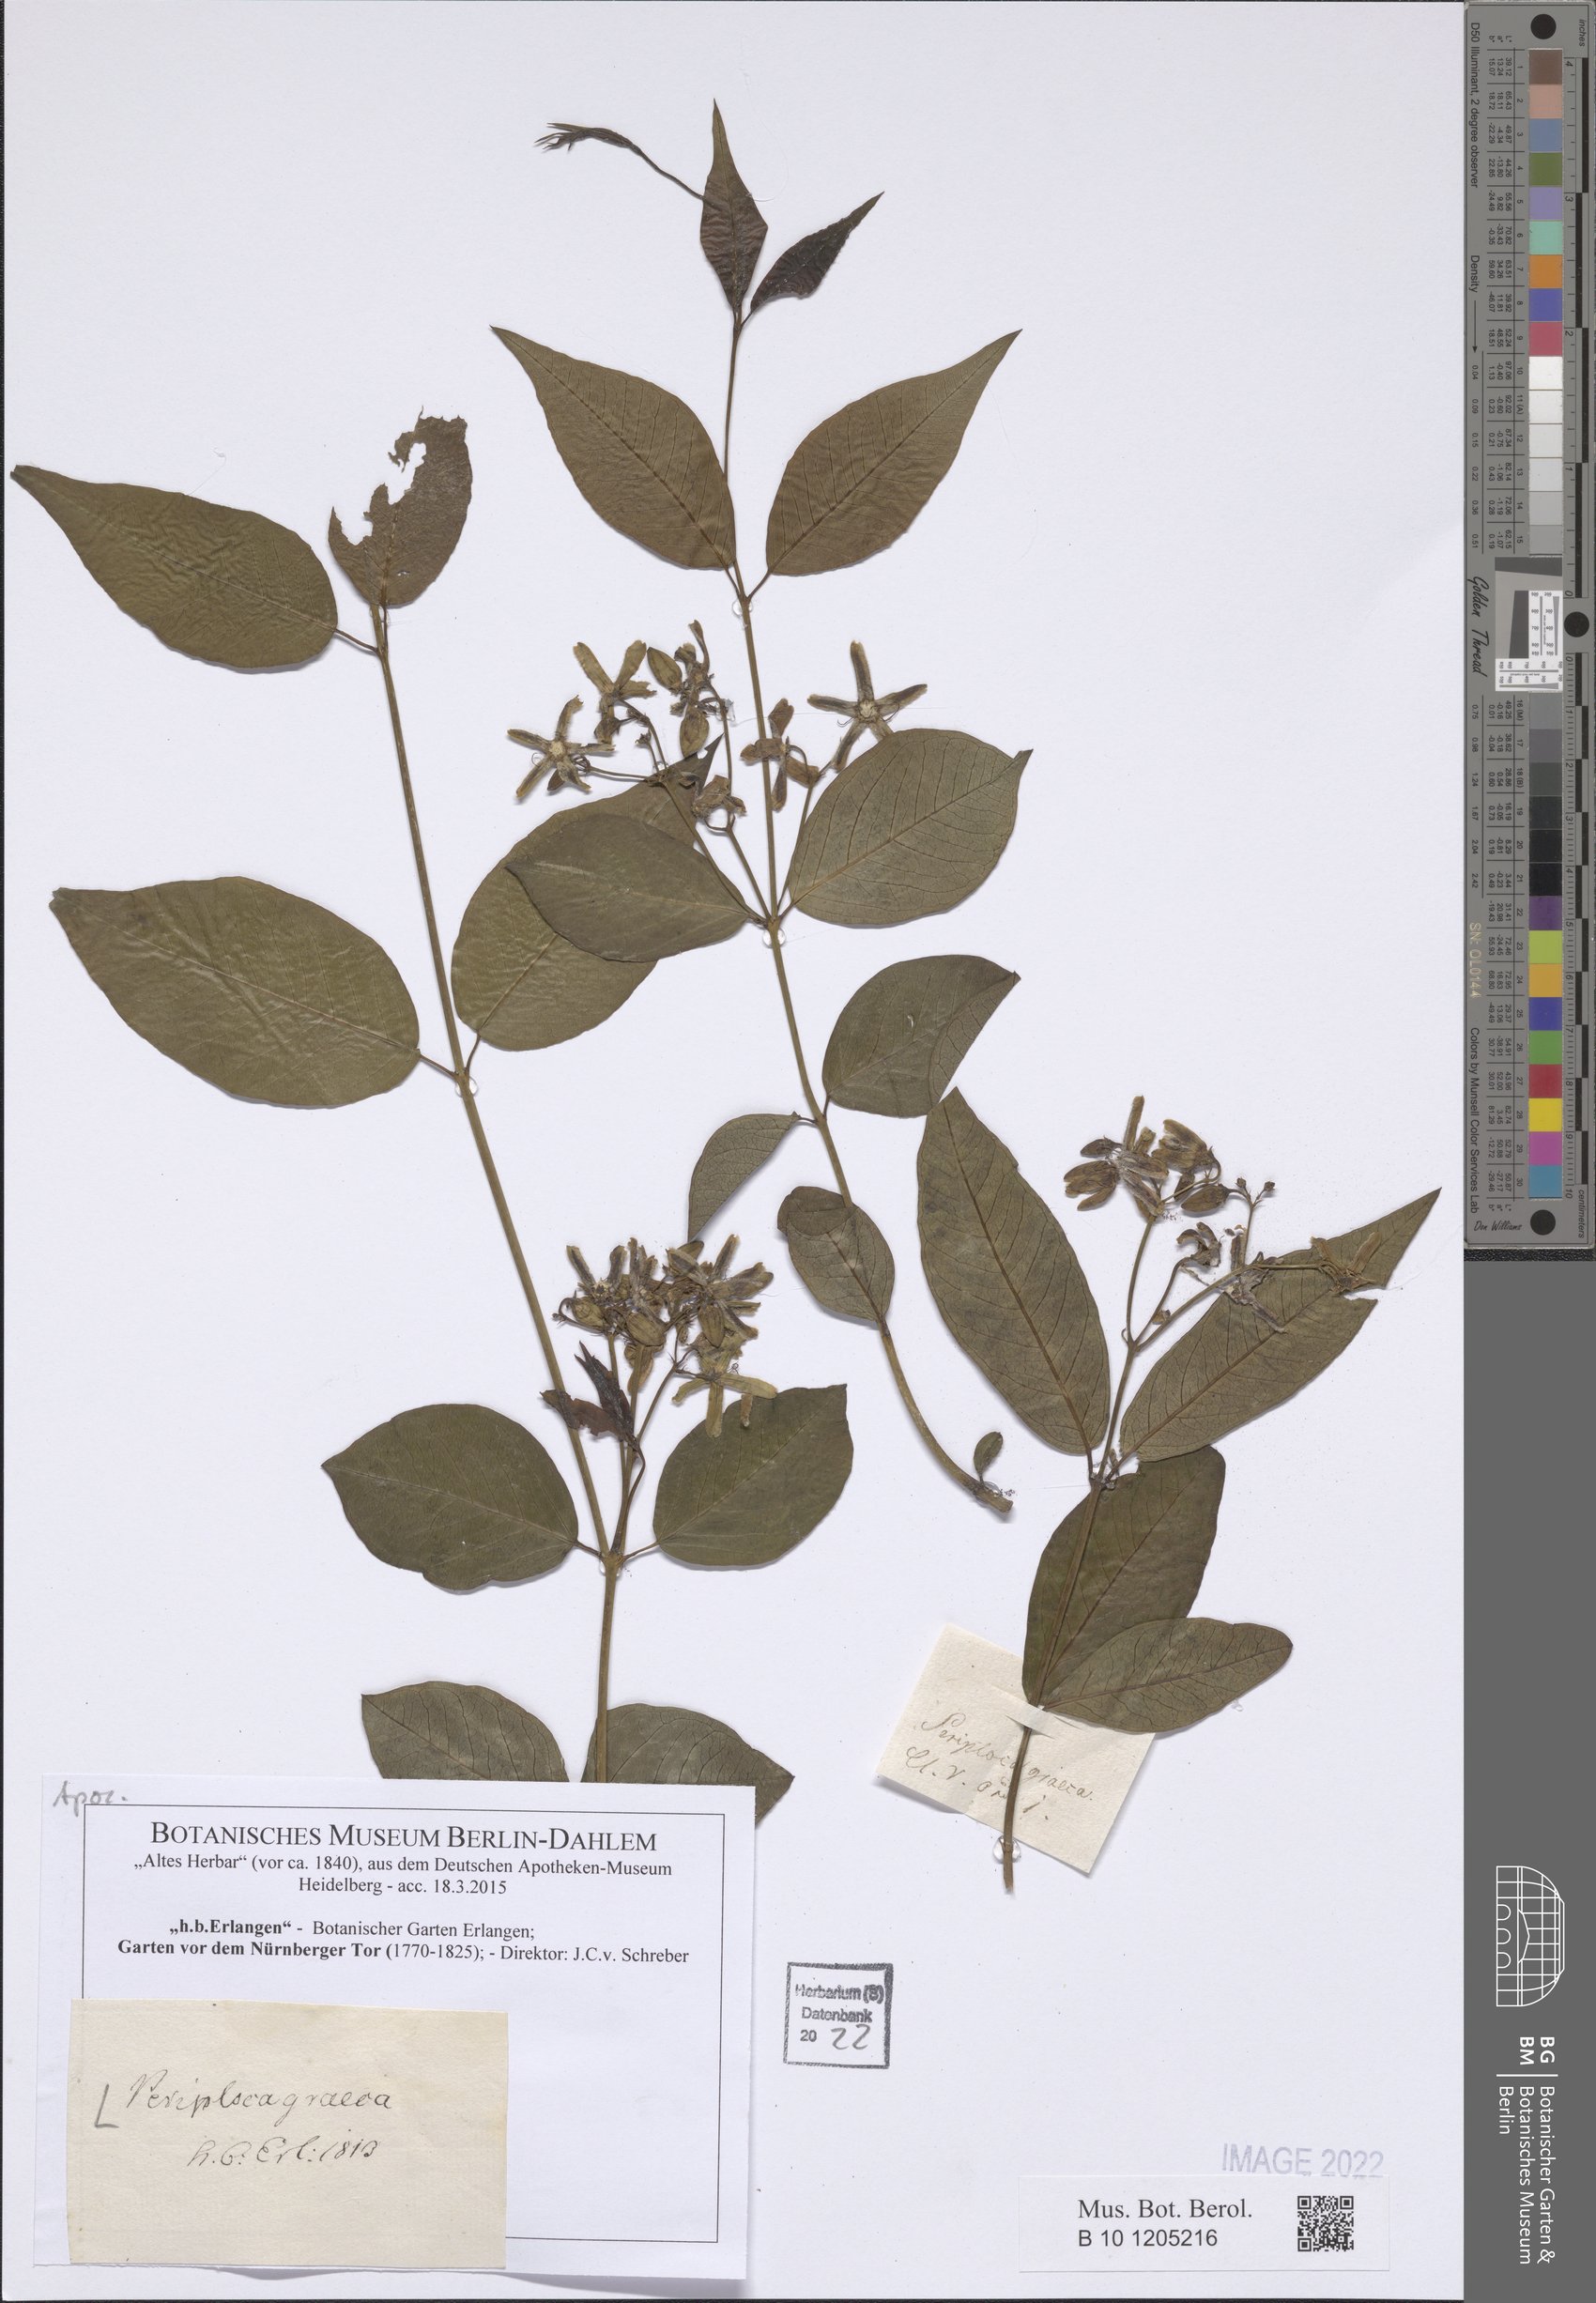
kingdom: Plantae
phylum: Tracheophyta
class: Magnoliopsida
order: Gentianales
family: Apocynaceae
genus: Periploca
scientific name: Periploca graeca
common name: Silkvine
